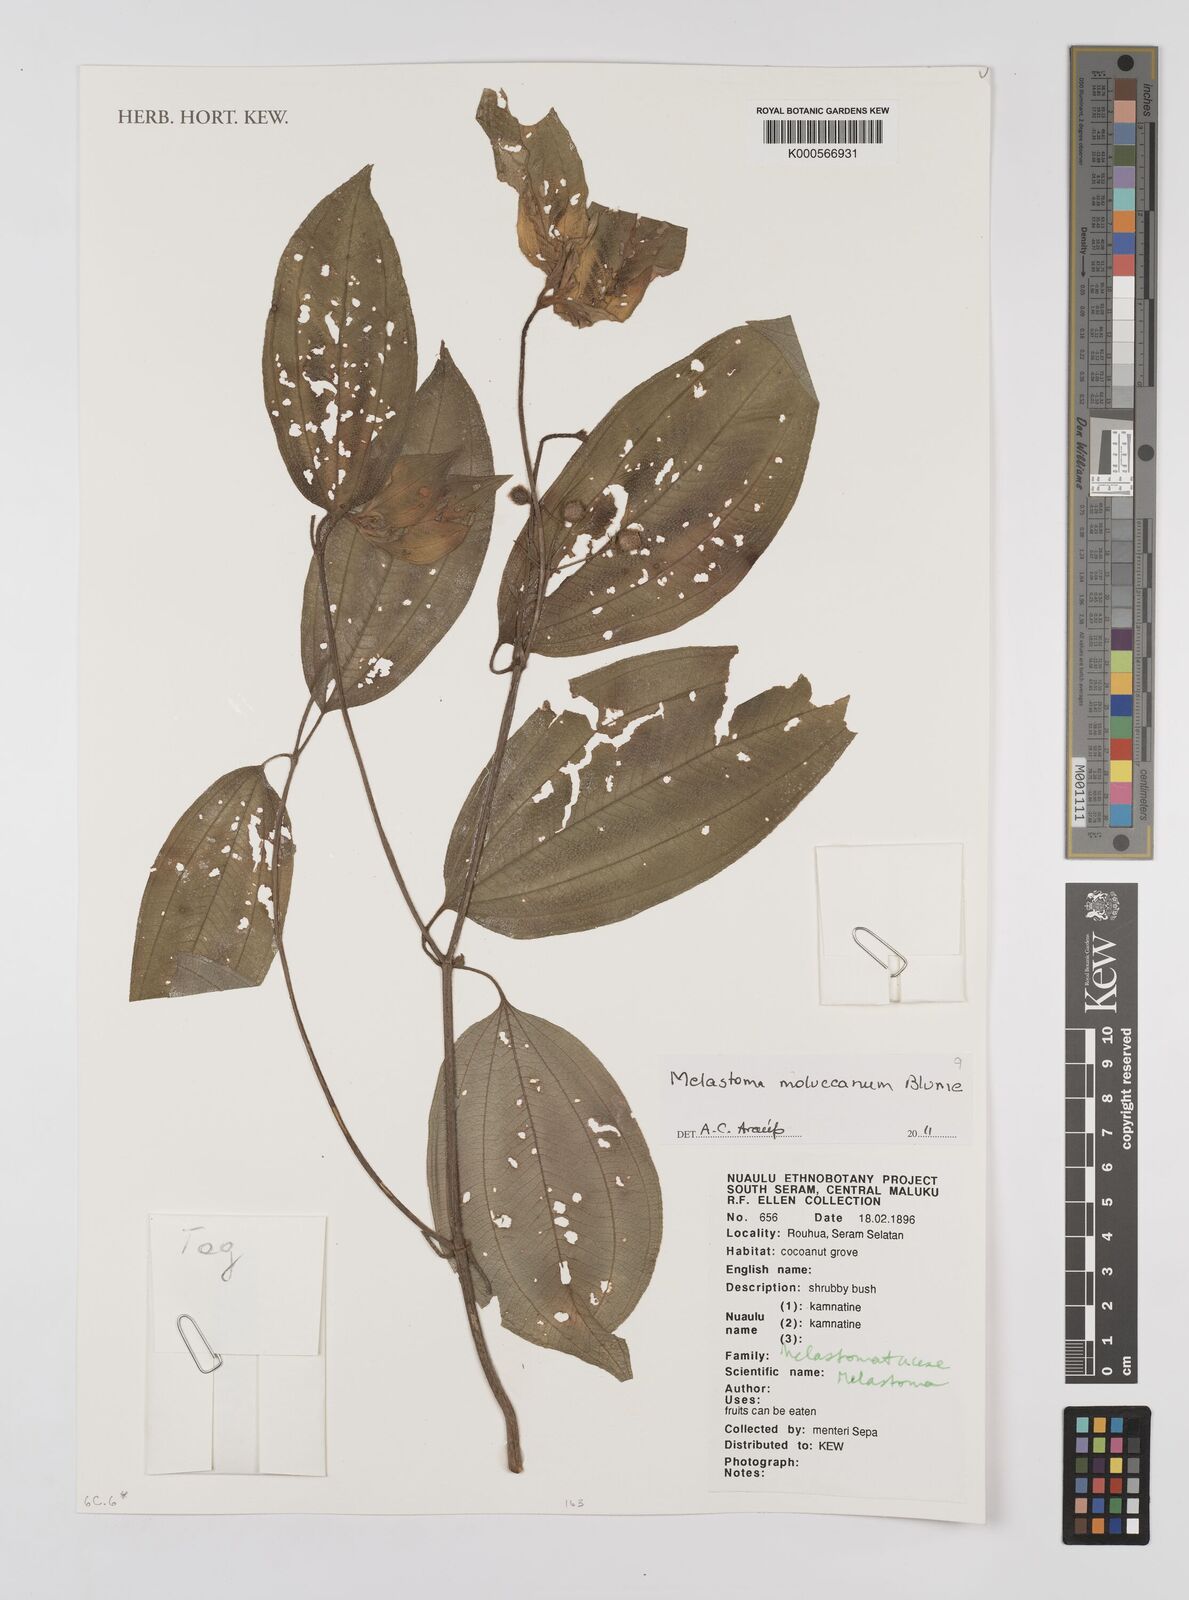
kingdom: Plantae
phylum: Tracheophyta
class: Magnoliopsida
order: Myrtales
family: Melastomataceae
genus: Melastoma
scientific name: Melastoma cyanoides
